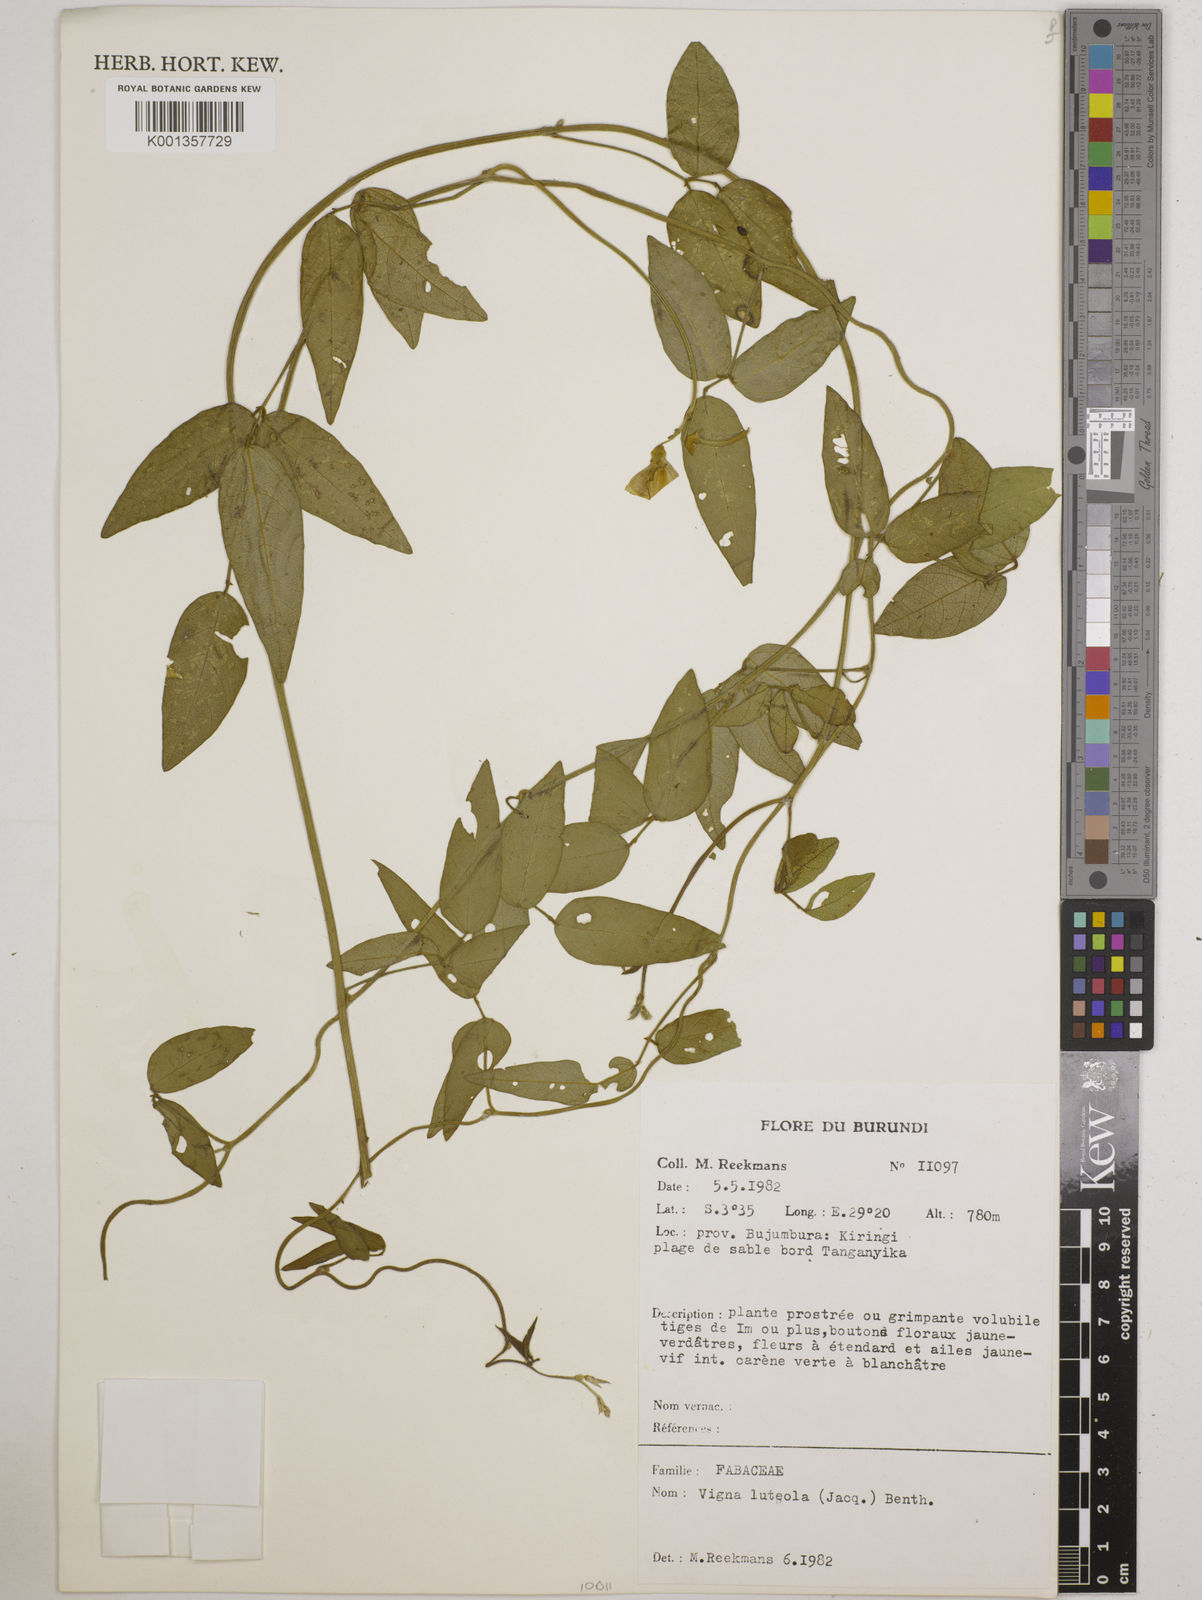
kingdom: Plantae
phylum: Tracheophyta
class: Magnoliopsida
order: Fabales
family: Fabaceae
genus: Vigna
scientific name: Vigna luteola
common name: Hairypod cowpea
